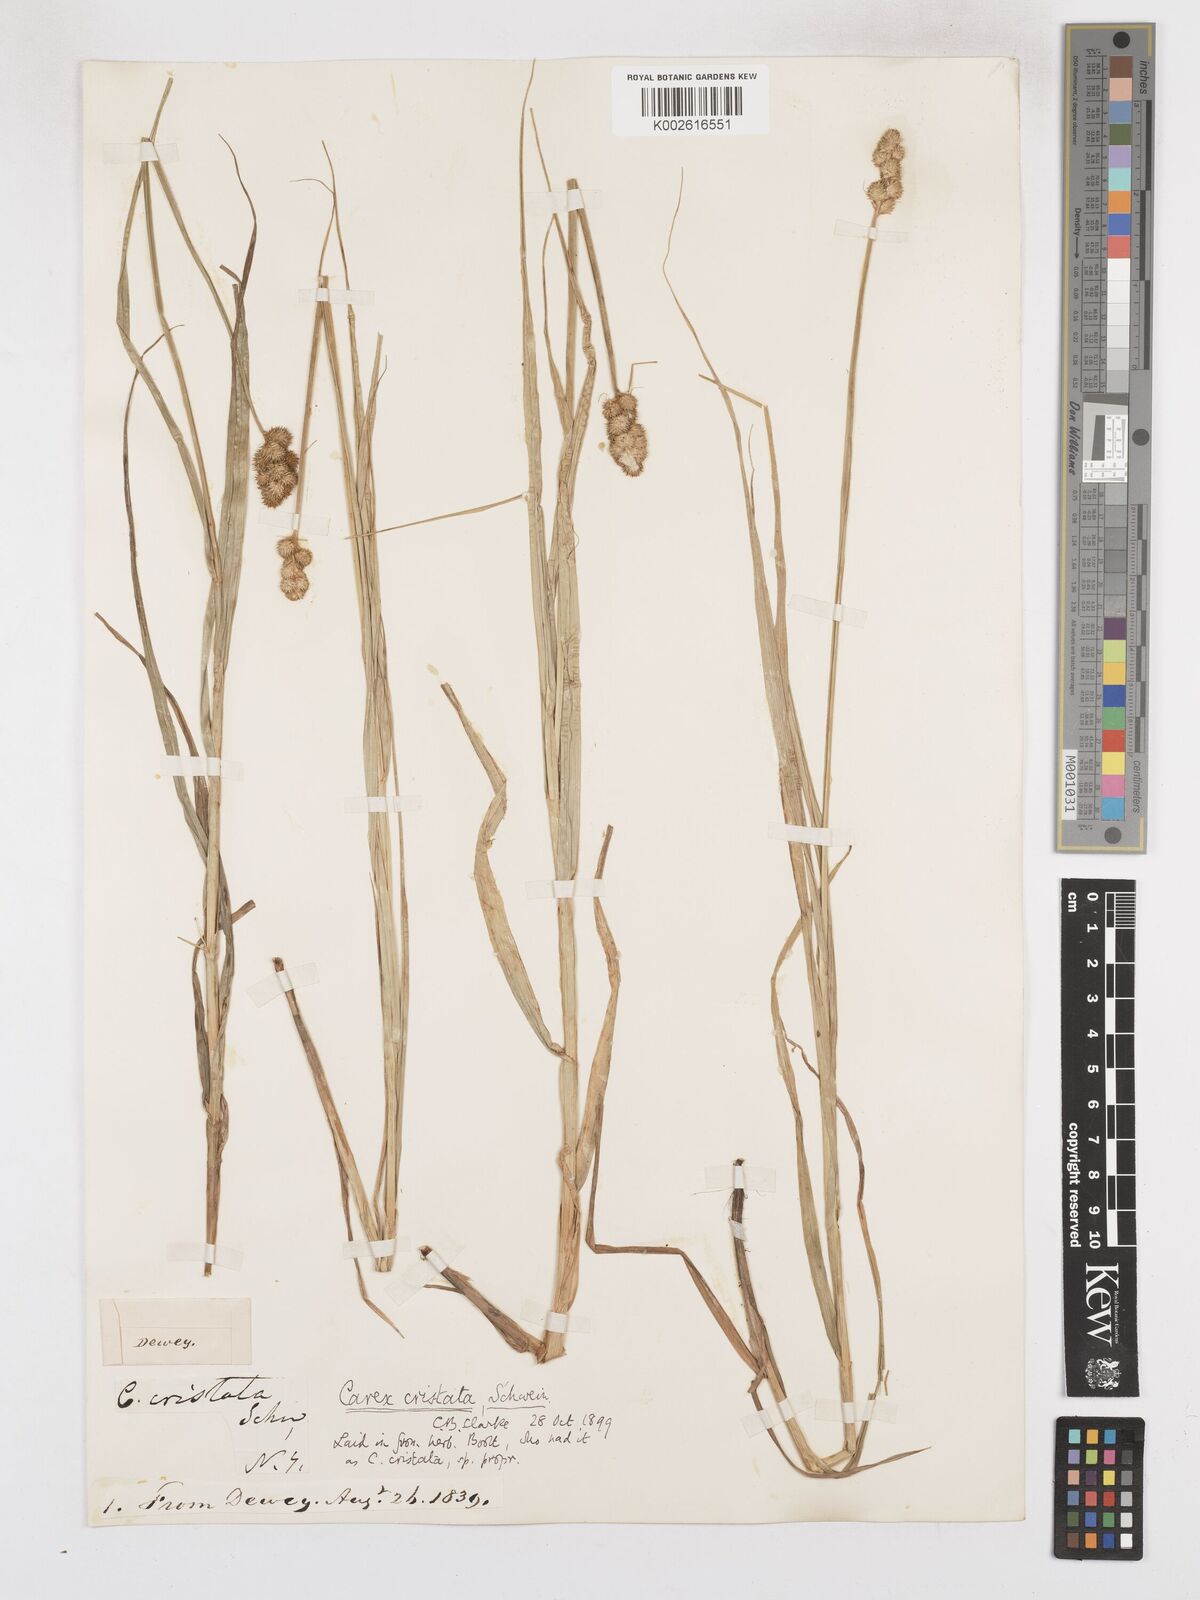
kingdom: Plantae
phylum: Tracheophyta
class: Liliopsida
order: Poales
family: Cyperaceae
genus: Carex
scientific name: Carex cristatella
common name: Crested oval sedge
